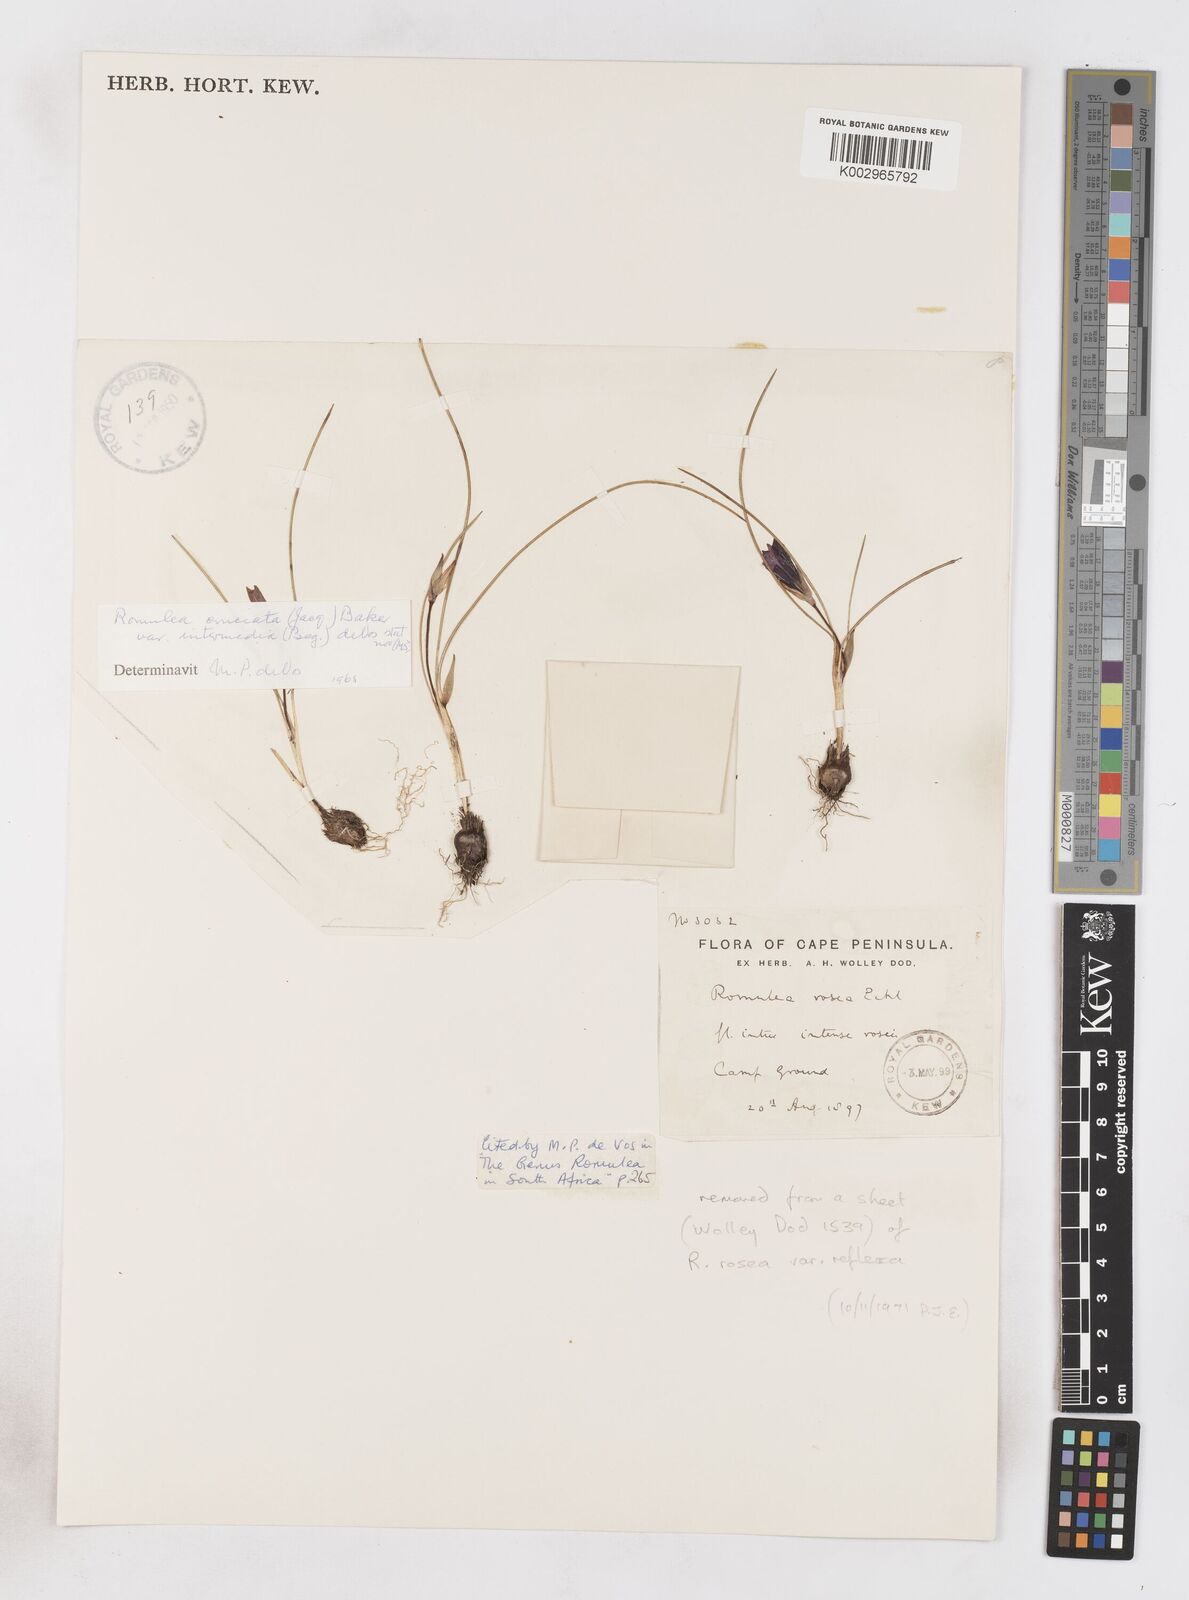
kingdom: Plantae
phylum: Tracheophyta
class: Liliopsida
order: Asparagales
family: Iridaceae
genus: Romulea
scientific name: Romulea cruciata
